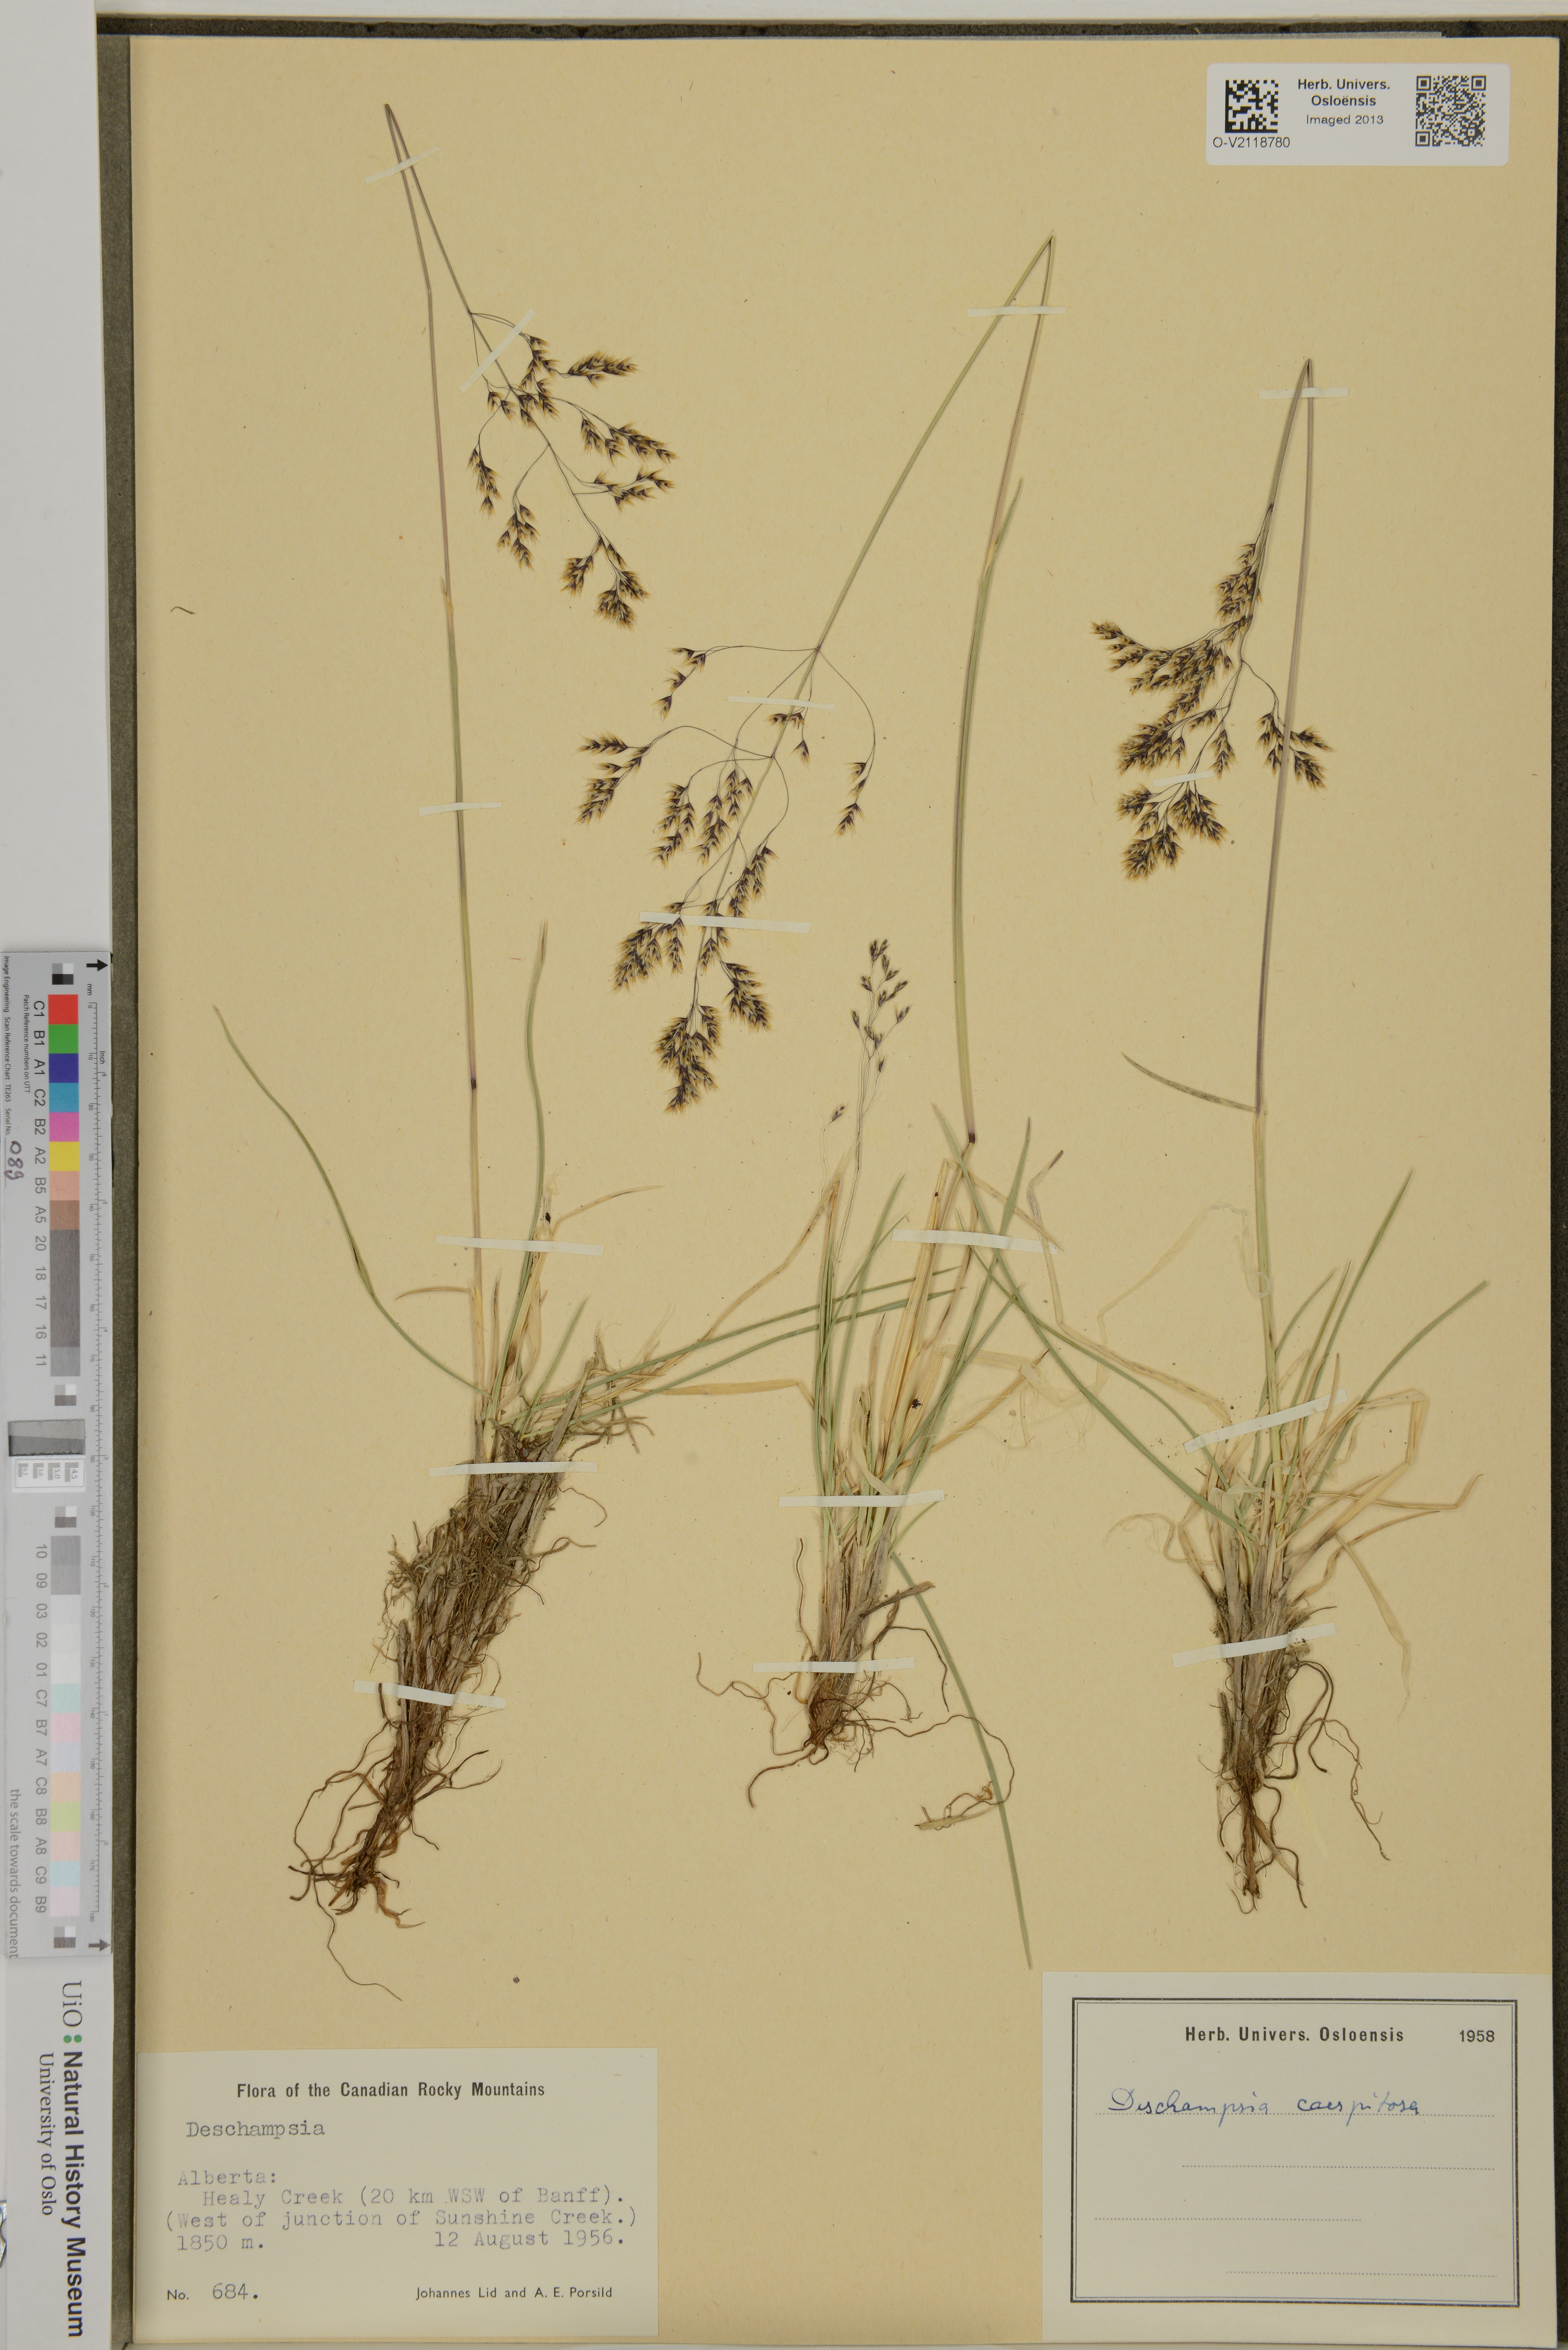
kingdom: Plantae
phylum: Tracheophyta
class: Liliopsida
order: Poales
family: Poaceae
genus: Deschampsia
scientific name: Deschampsia cespitosa
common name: Tufted hair-grass
